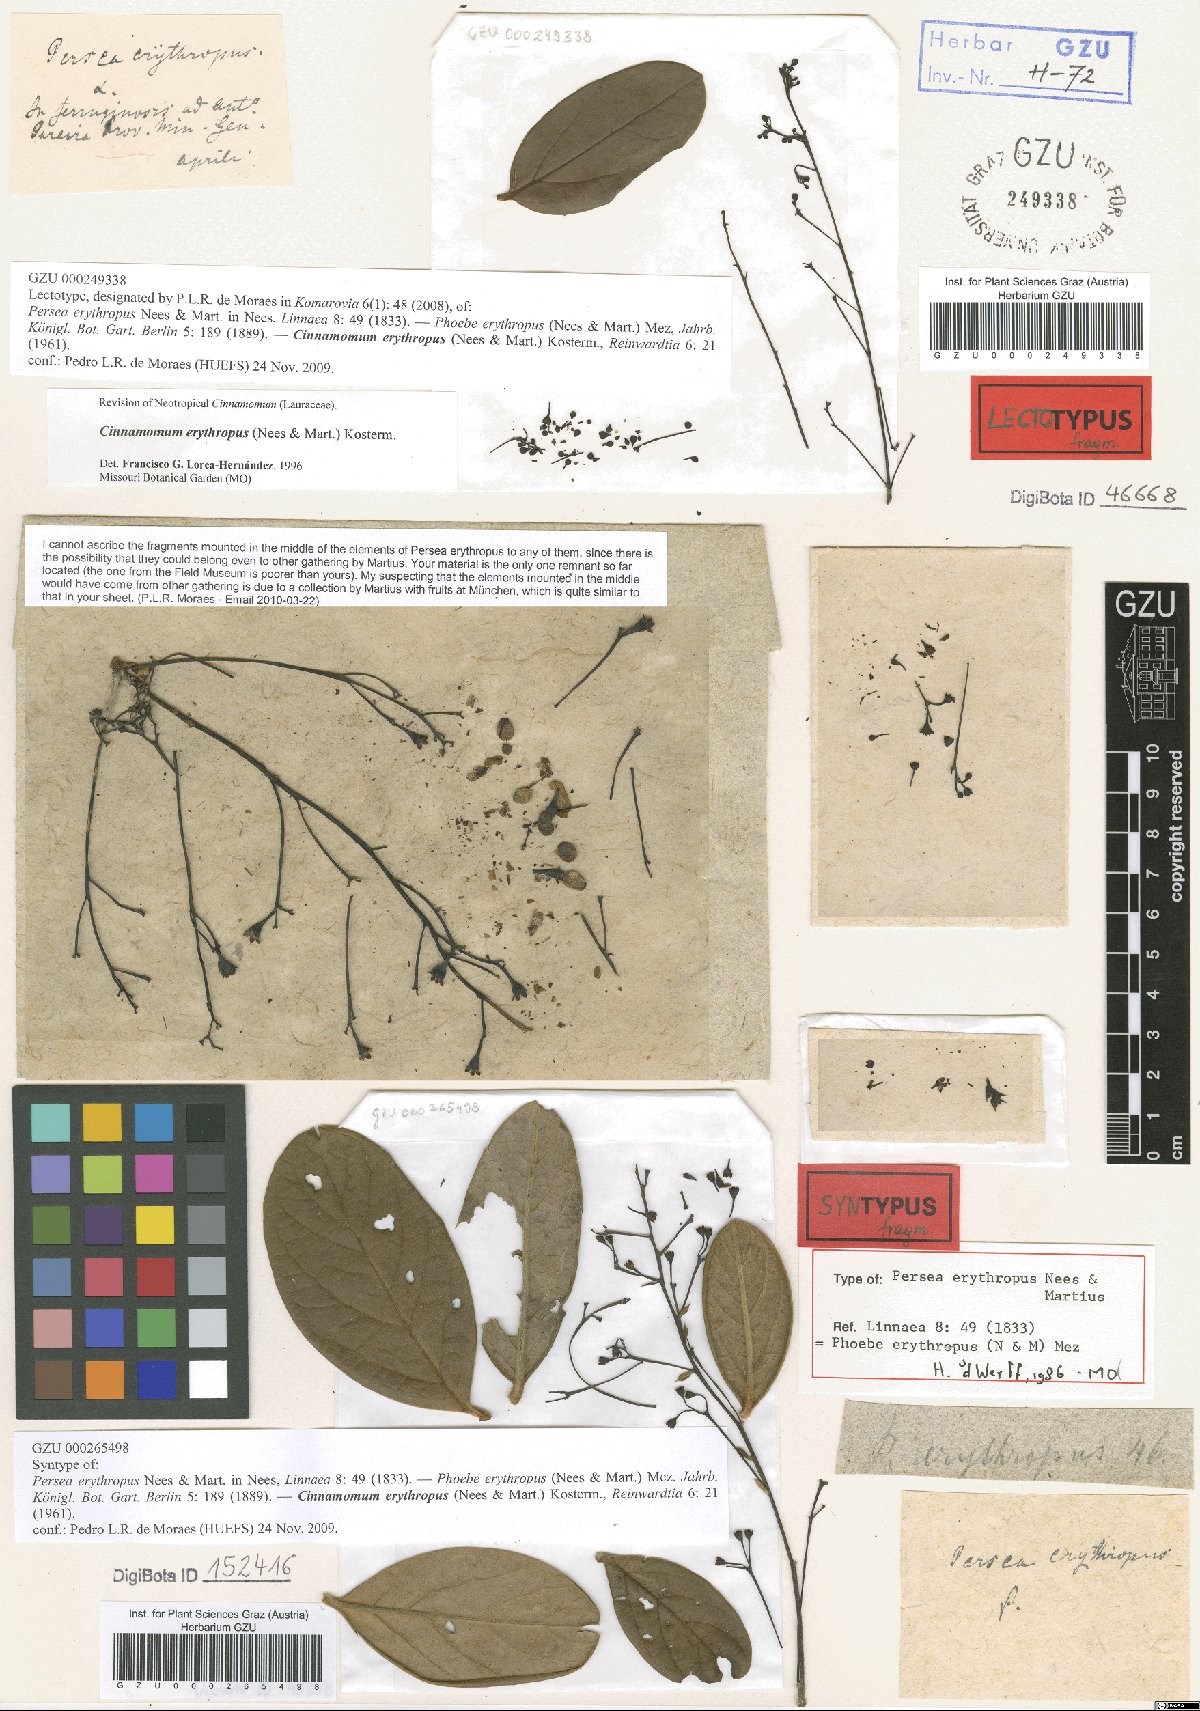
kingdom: Plantae
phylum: Tracheophyta
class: Magnoliopsida
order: Laurales
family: Lauraceae
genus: Aiouea
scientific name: Aiouea erythropus
